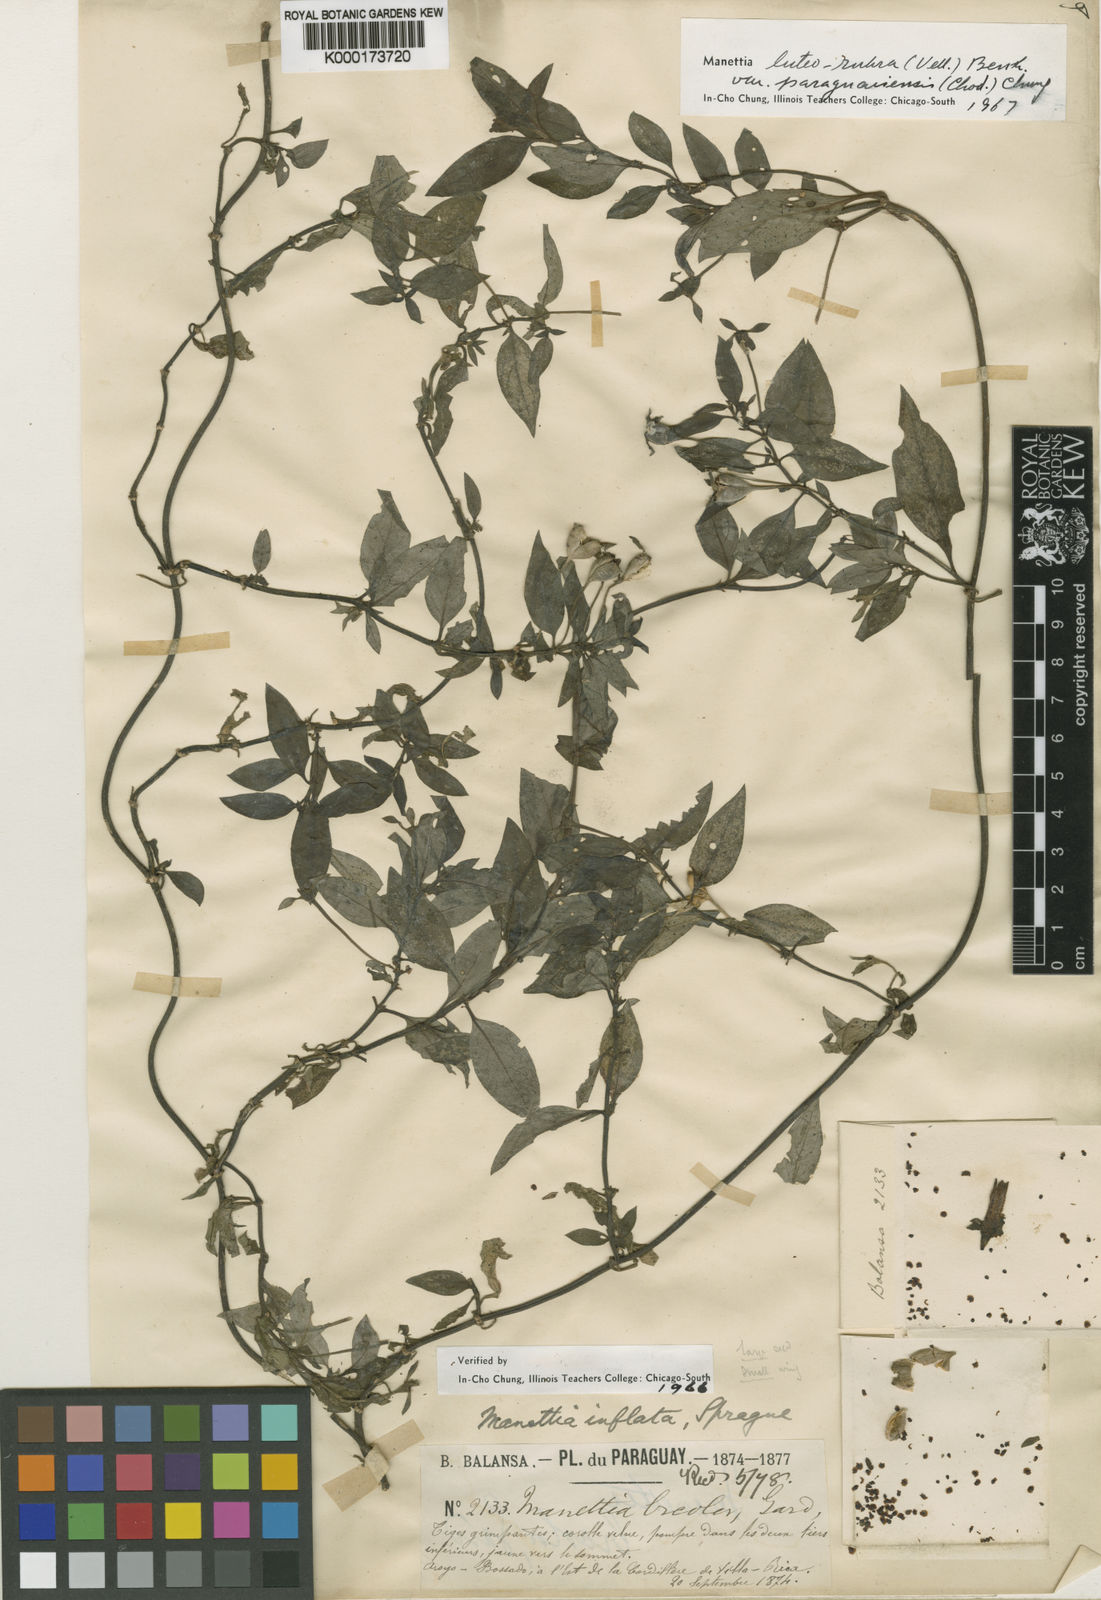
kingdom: Plantae
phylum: Tracheophyta
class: Magnoliopsida
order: Gentianales
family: Rubiaceae
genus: Manettia
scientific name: Manettia paraguariensis
